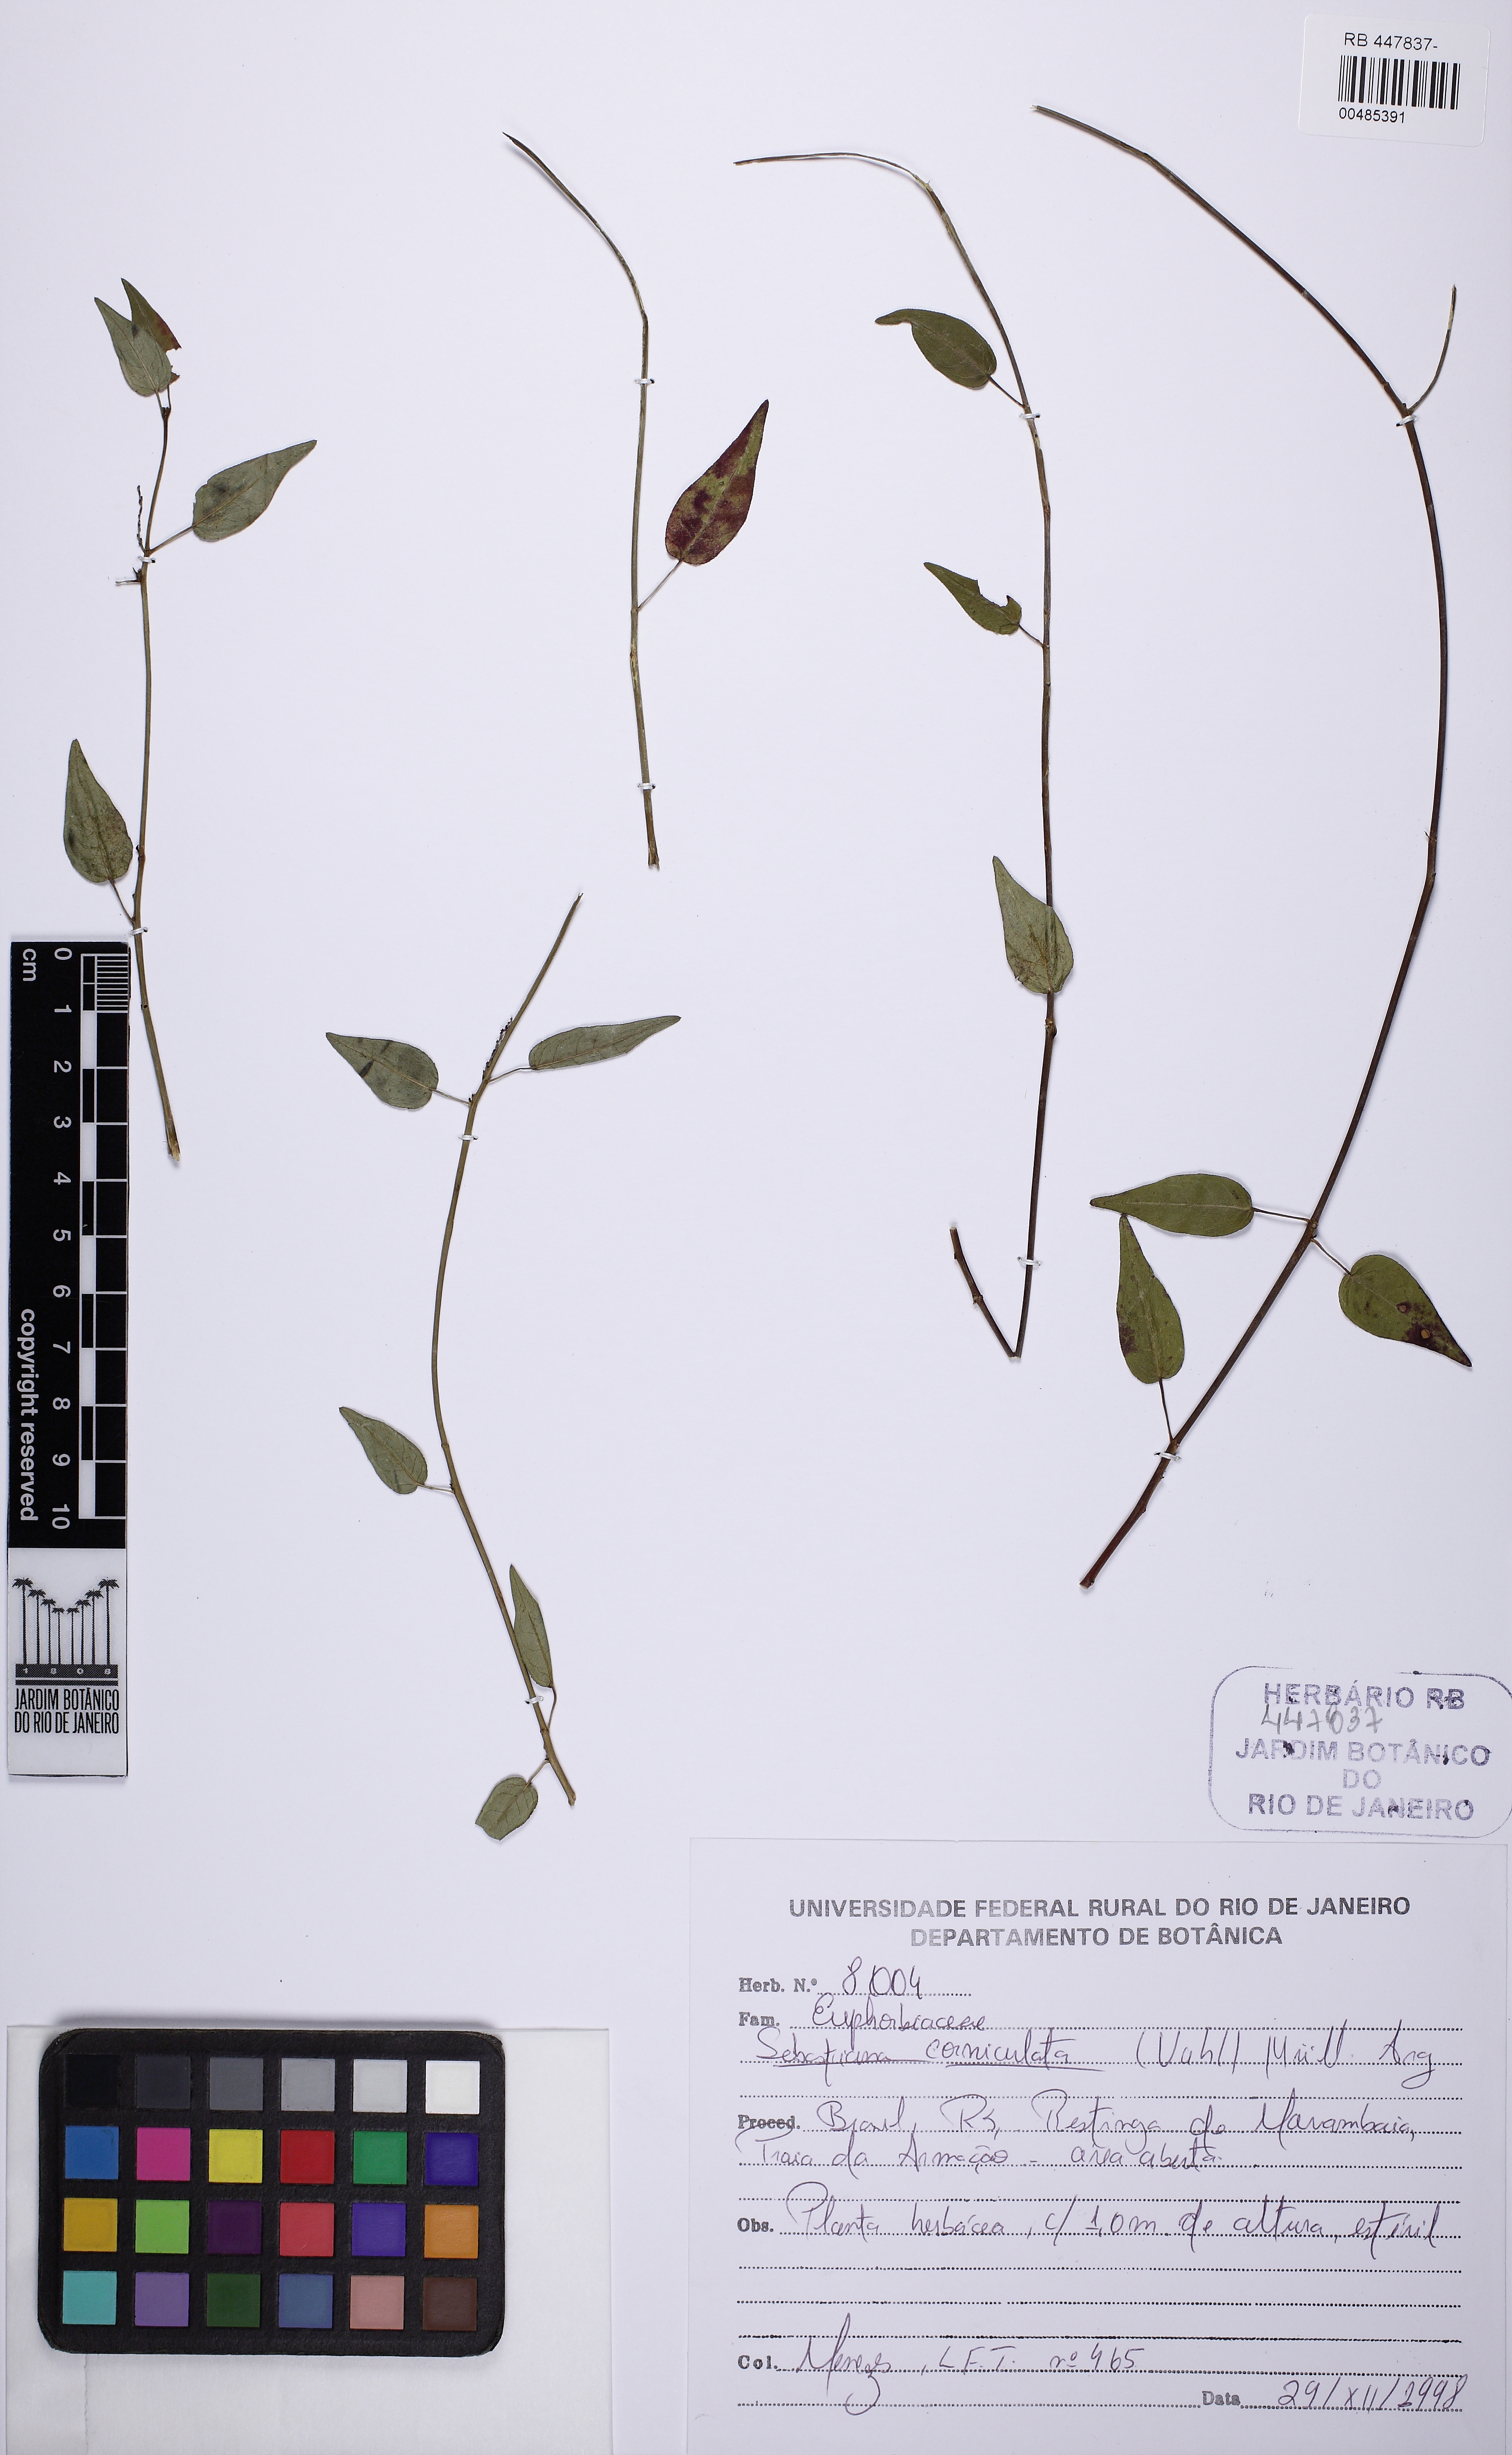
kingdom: Plantae
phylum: Tracheophyta
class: Magnoliopsida
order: Malpighiales
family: Euphorbiaceae
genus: Microstachys
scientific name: Microstachys corniculata
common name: Hato tejas
